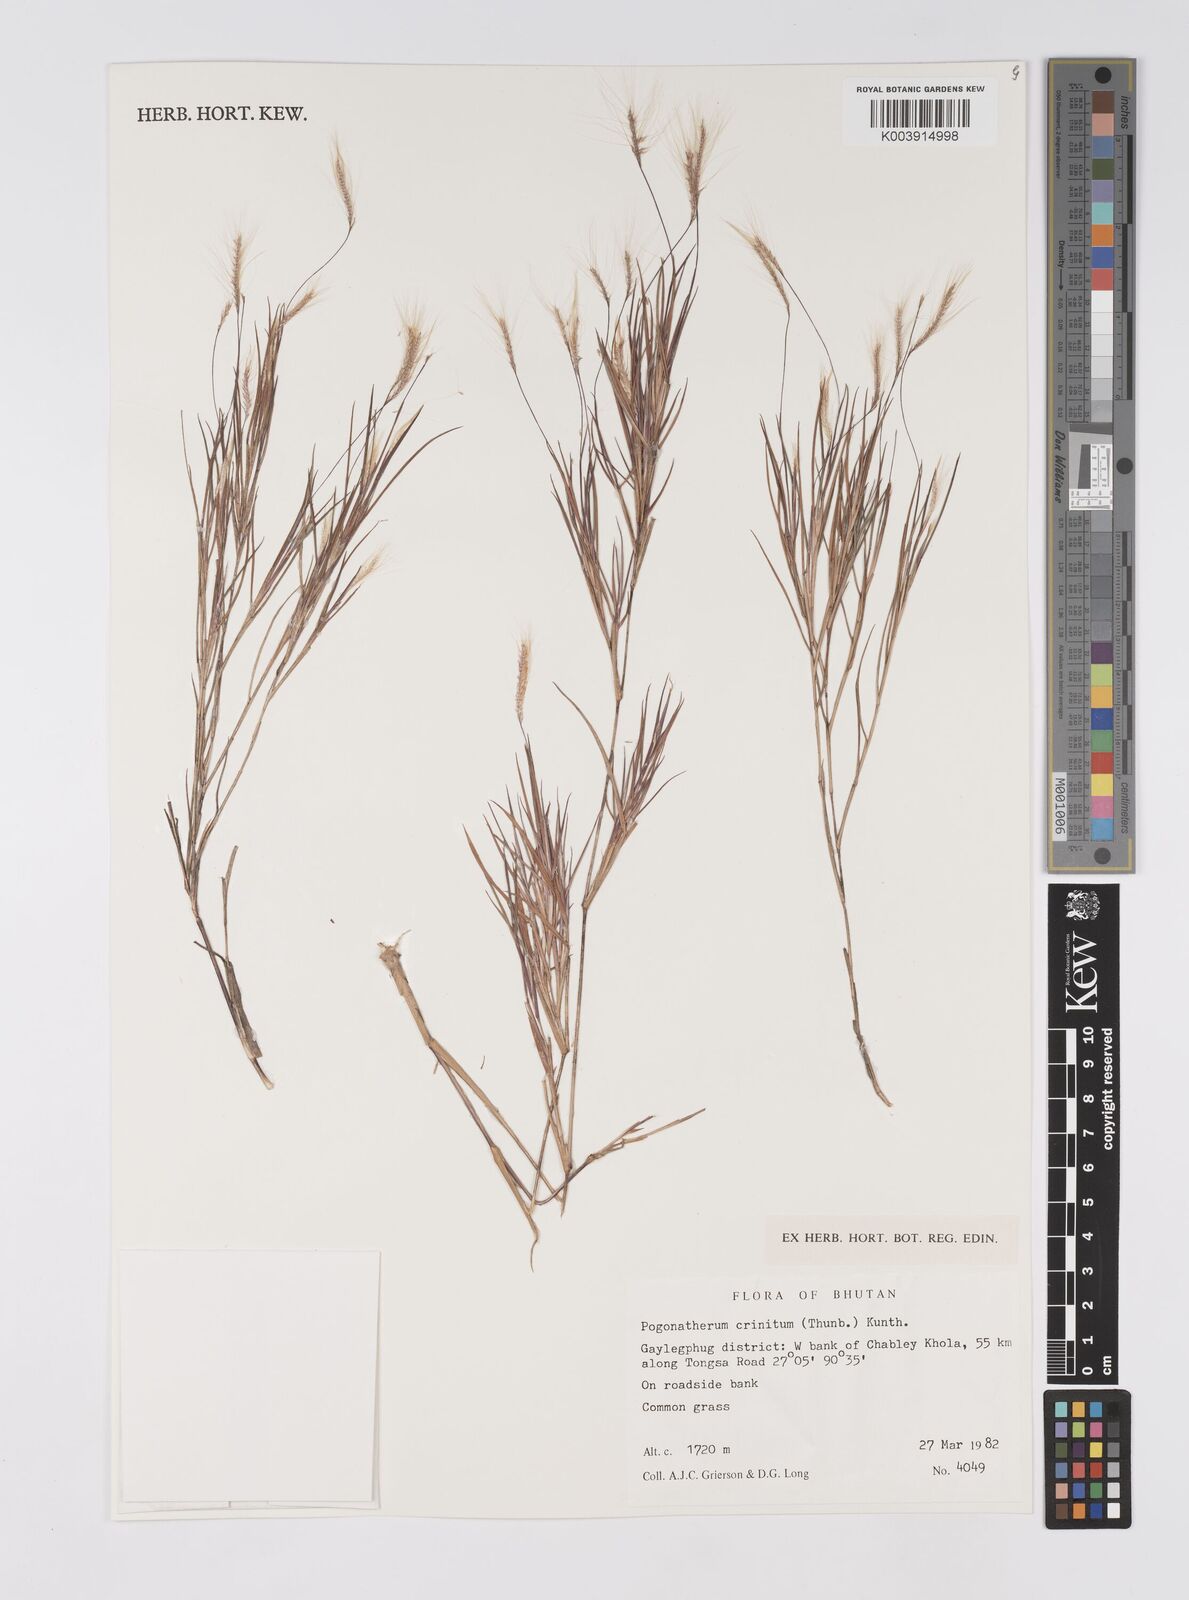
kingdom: Plantae
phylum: Tracheophyta
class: Liliopsida
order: Poales
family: Poaceae
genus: Pogonatherum
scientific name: Pogonatherum crinitum
